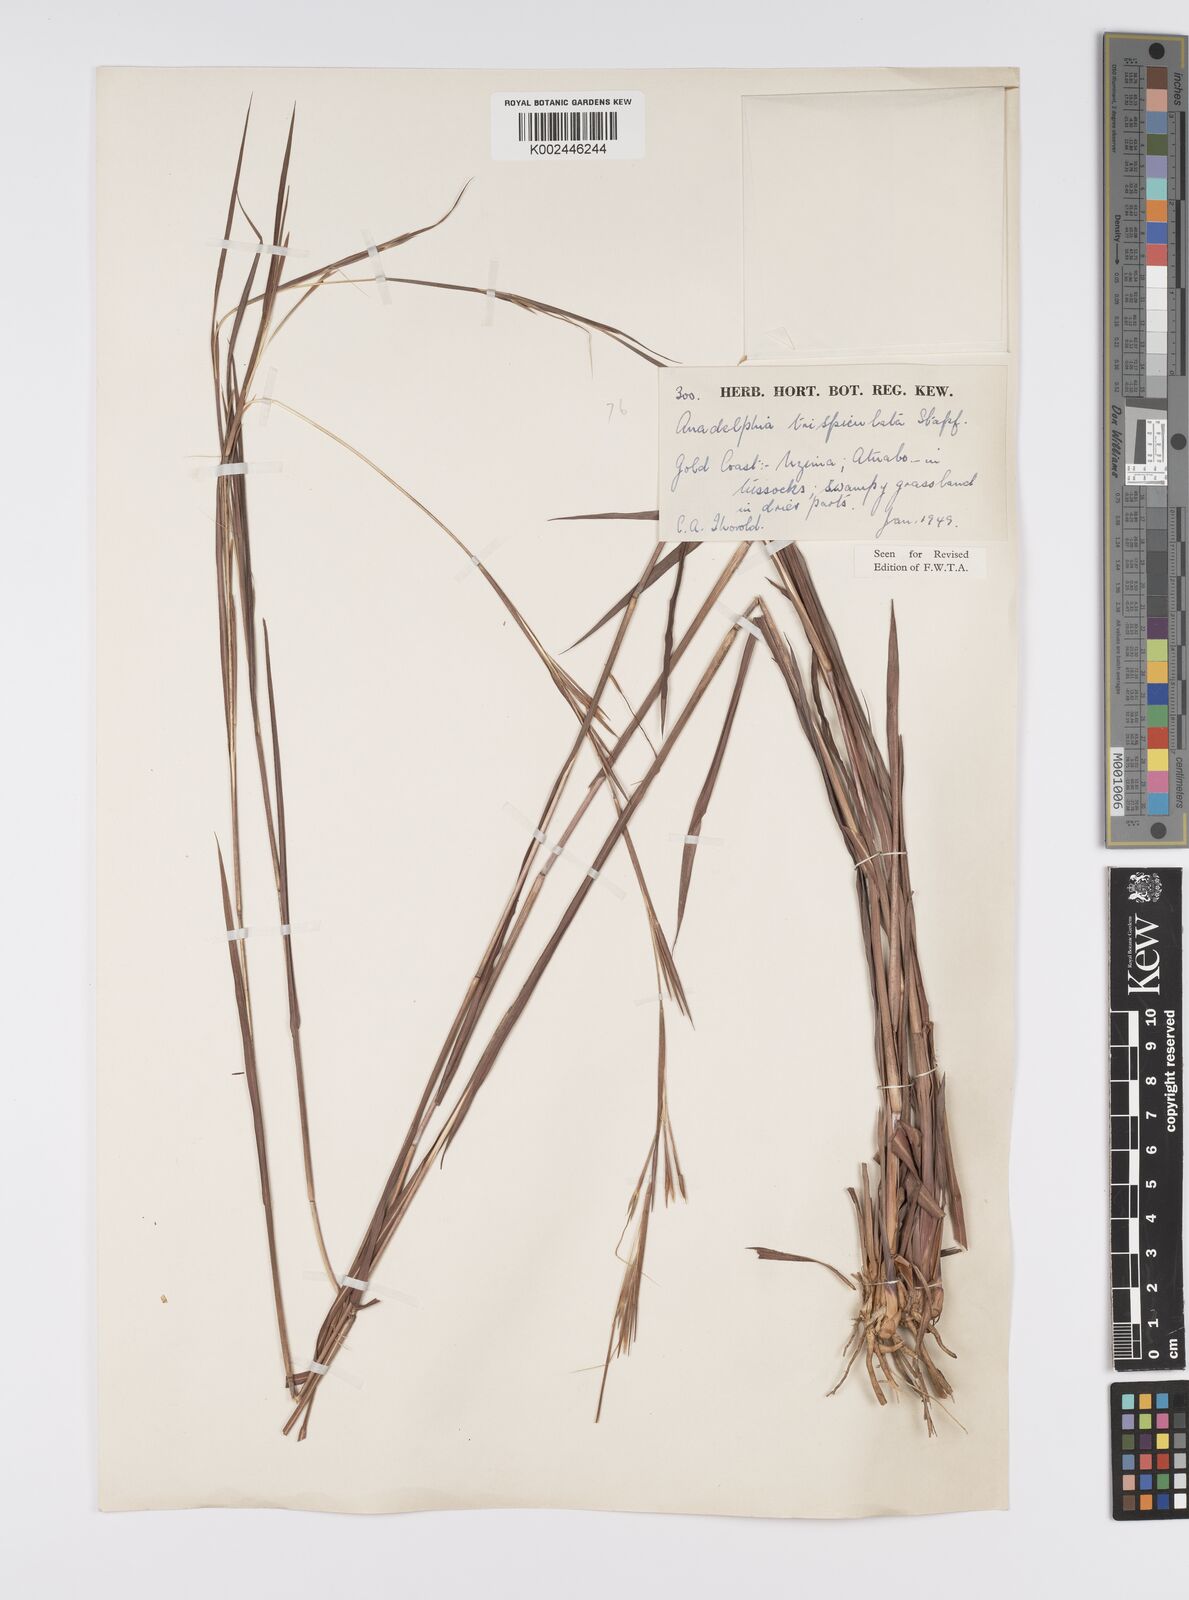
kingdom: Plantae
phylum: Tracheophyta
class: Liliopsida
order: Poales
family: Poaceae
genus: Anadelphia
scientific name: Anadelphia trispiculata
